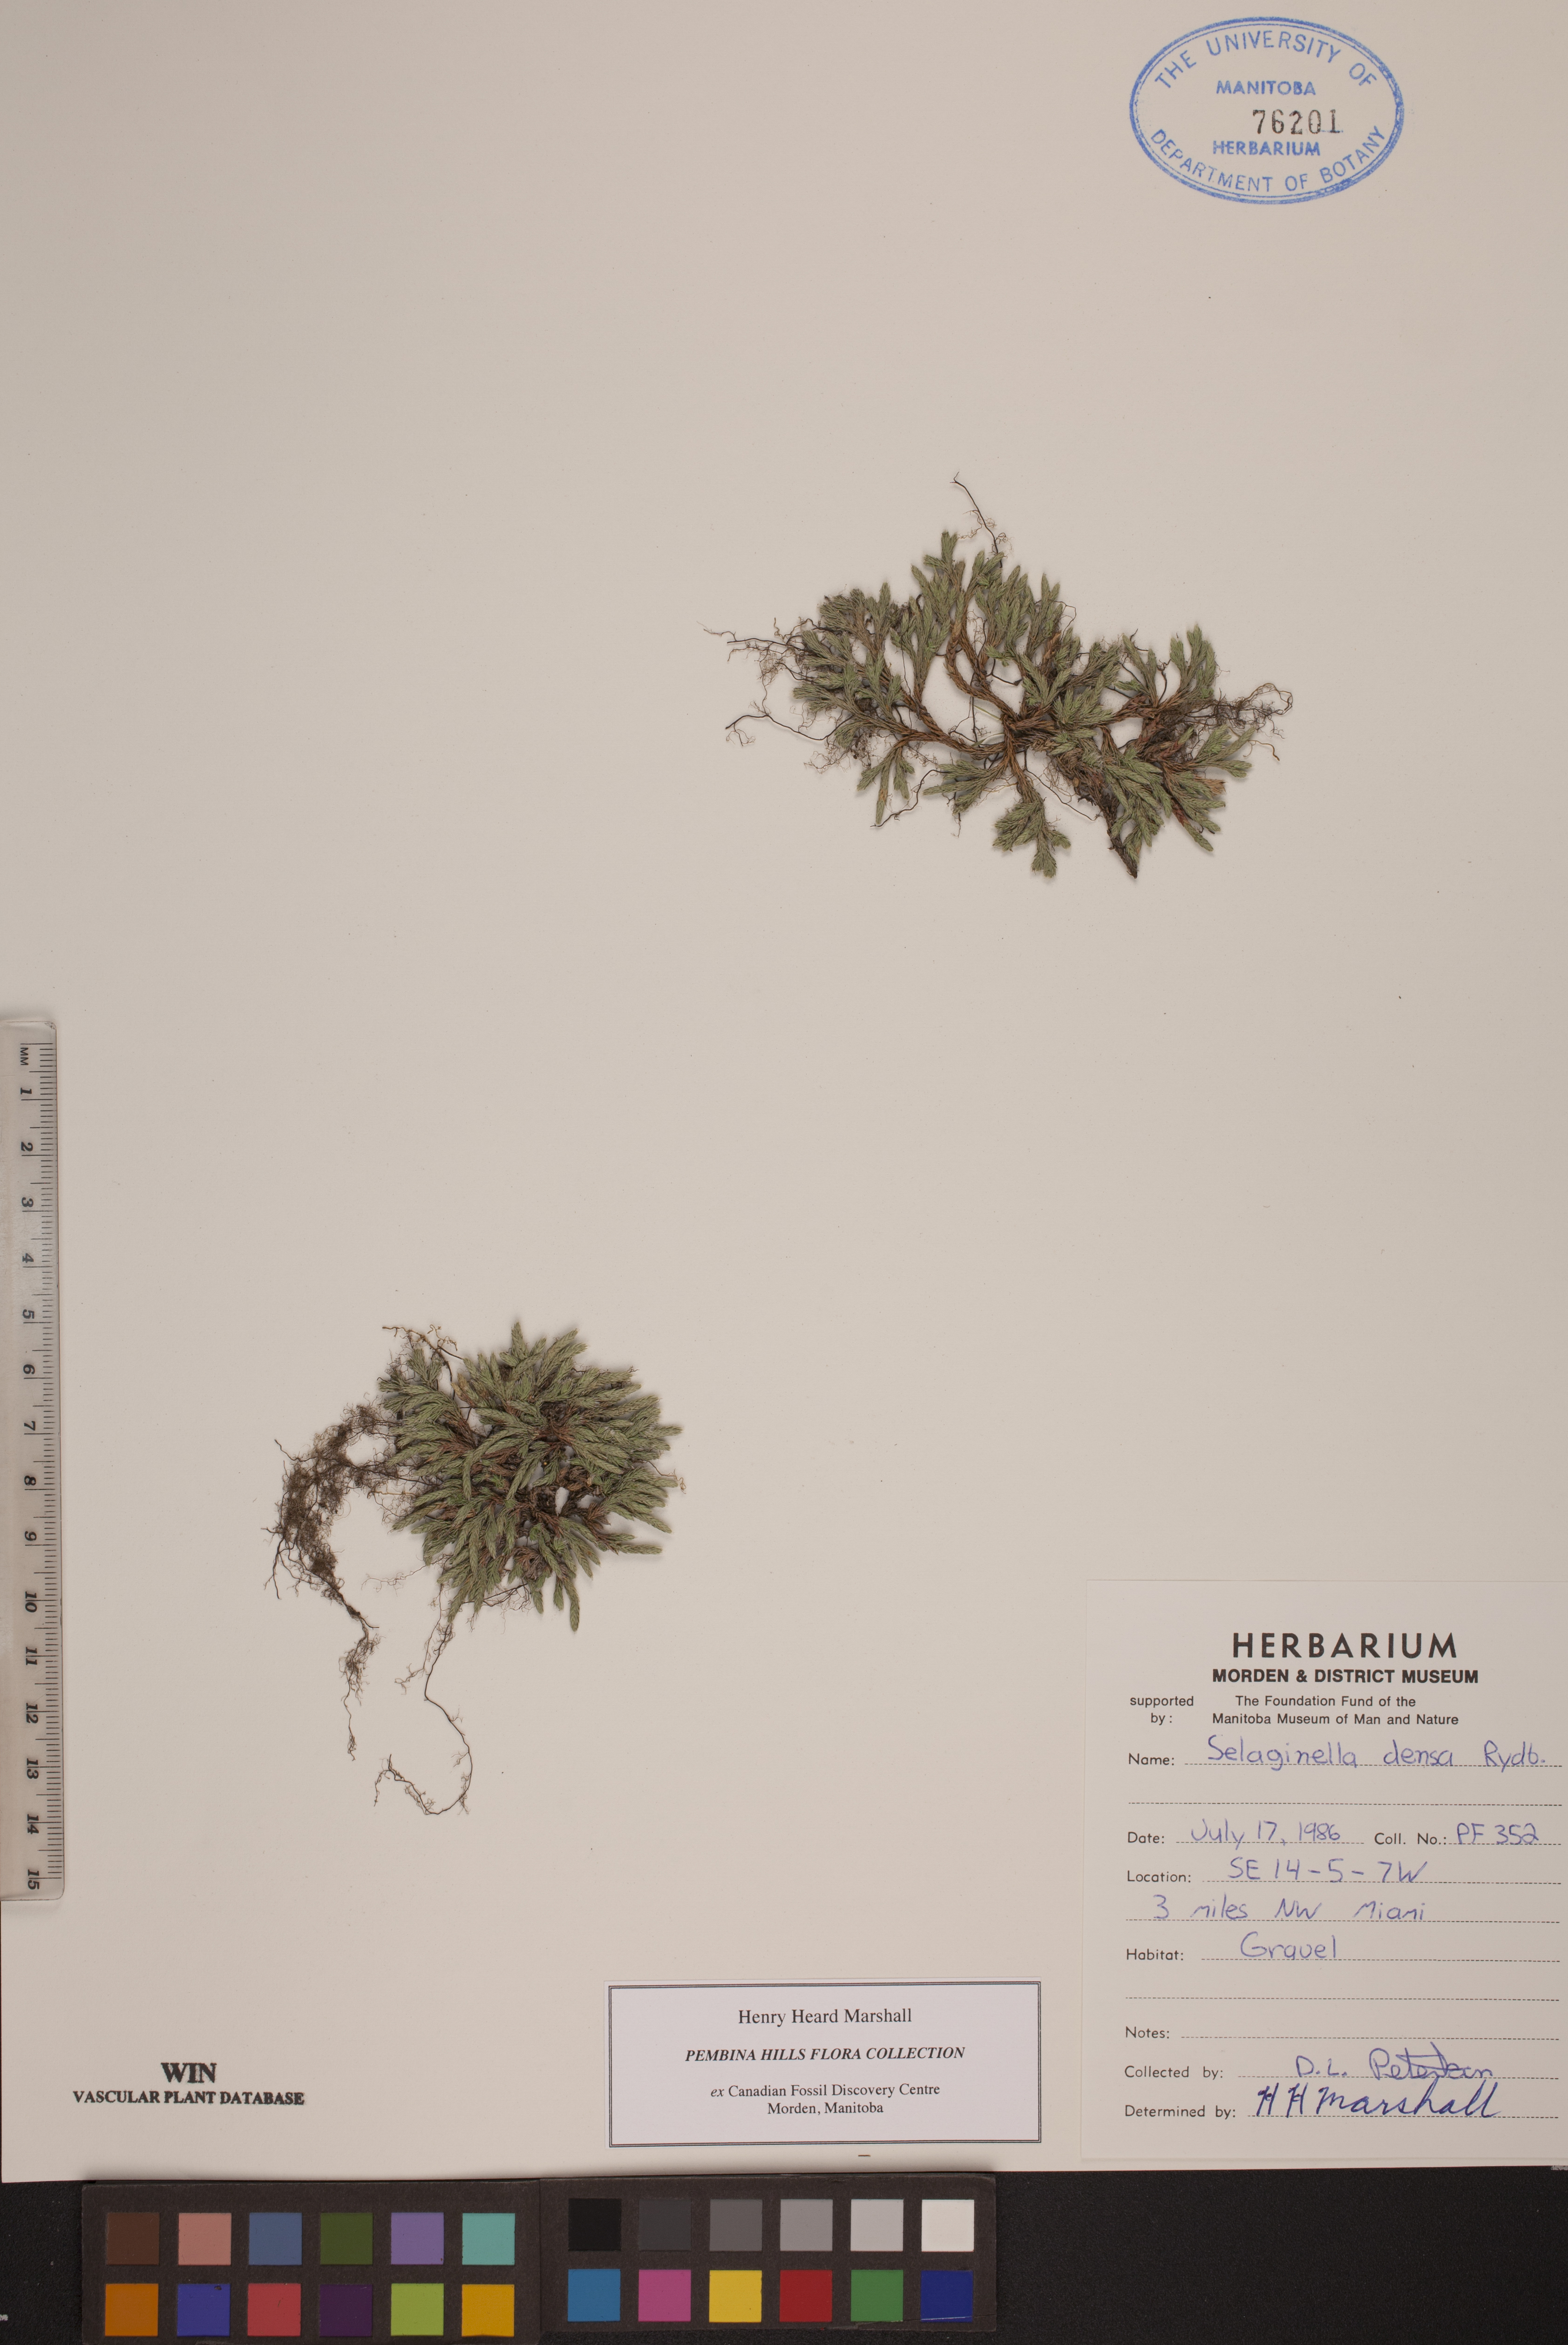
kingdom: Plantae
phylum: Tracheophyta
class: Lycopodiopsida
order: Selaginellales
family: Selaginellaceae
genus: Selaginella
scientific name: Selaginella densa
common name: Mountain spike-moss
